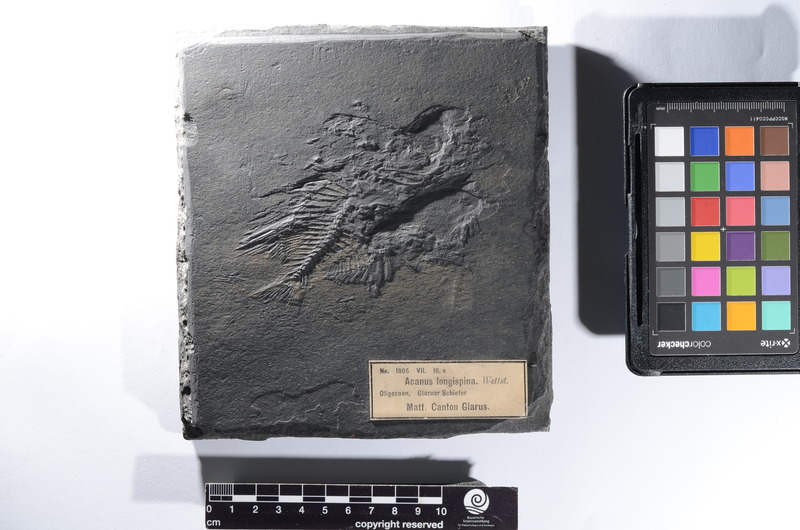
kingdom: Animalia
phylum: Chordata
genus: Acanus
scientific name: Acanus
